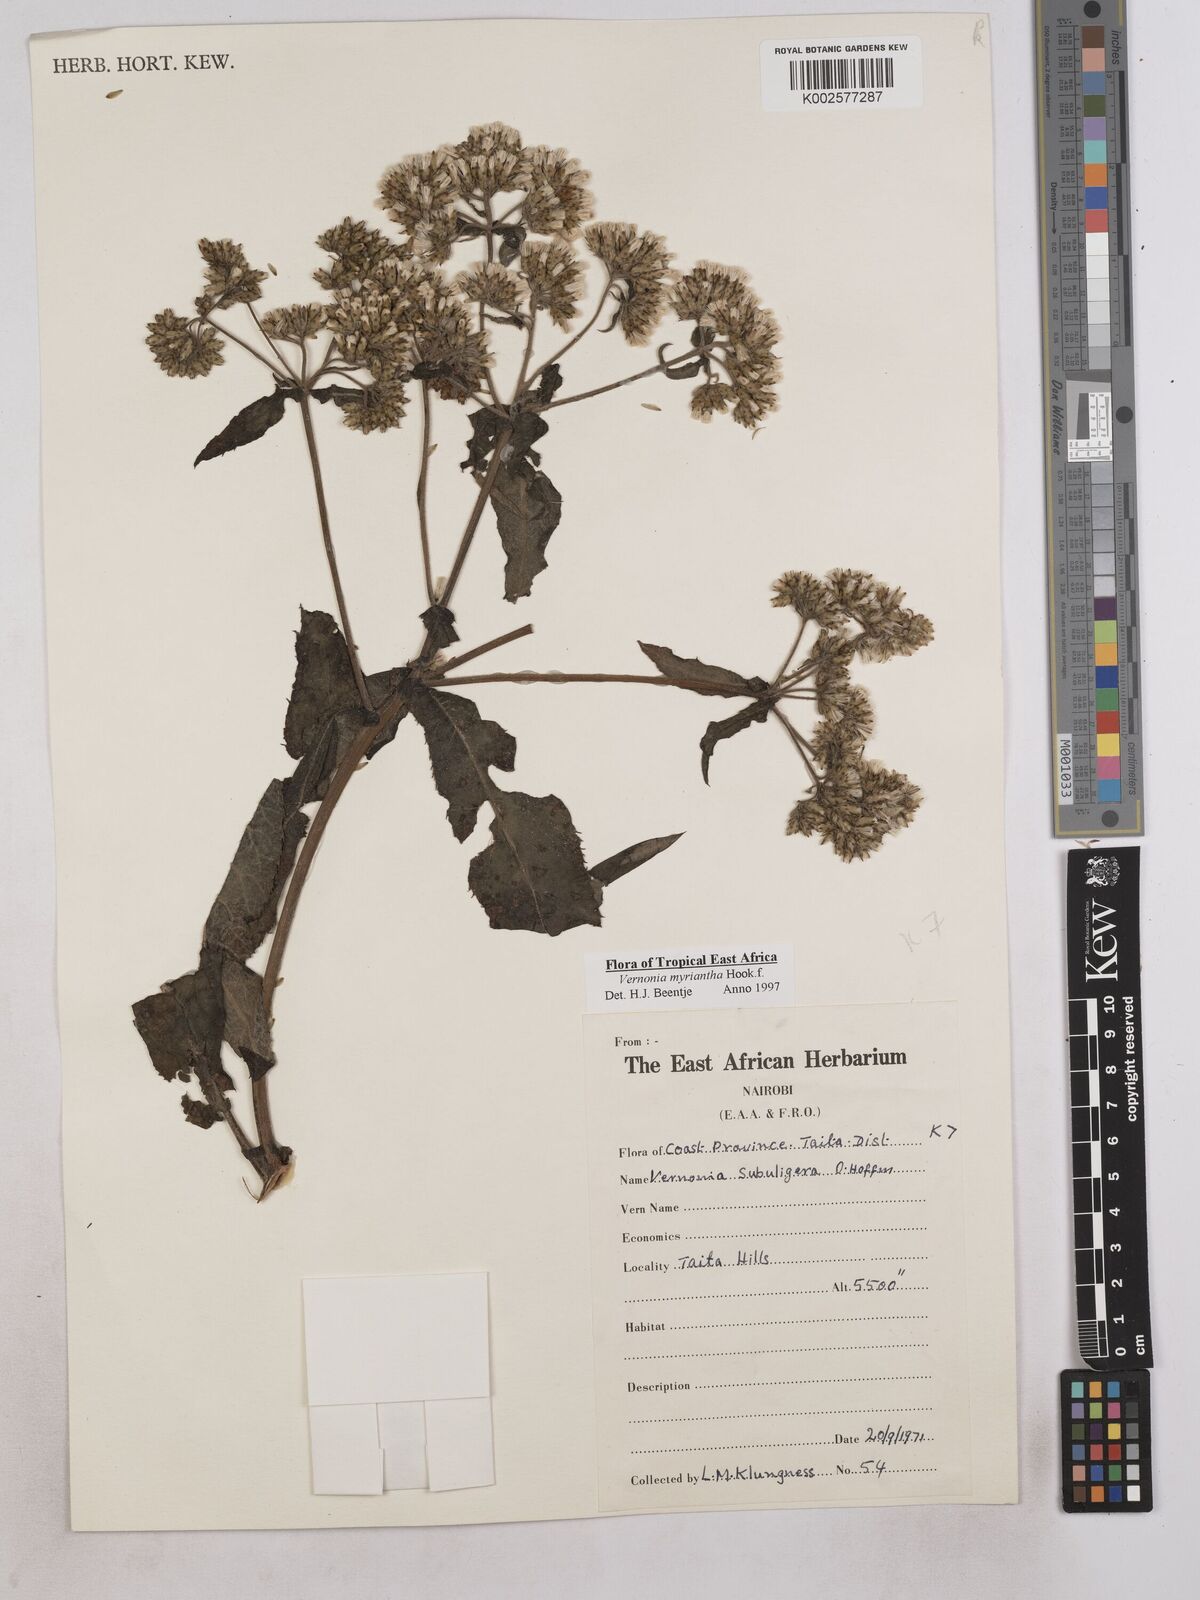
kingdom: Plantae
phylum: Tracheophyta
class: Magnoliopsida
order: Asterales
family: Asteraceae
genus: Gymnanthemum
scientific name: Gymnanthemum myrianthum
